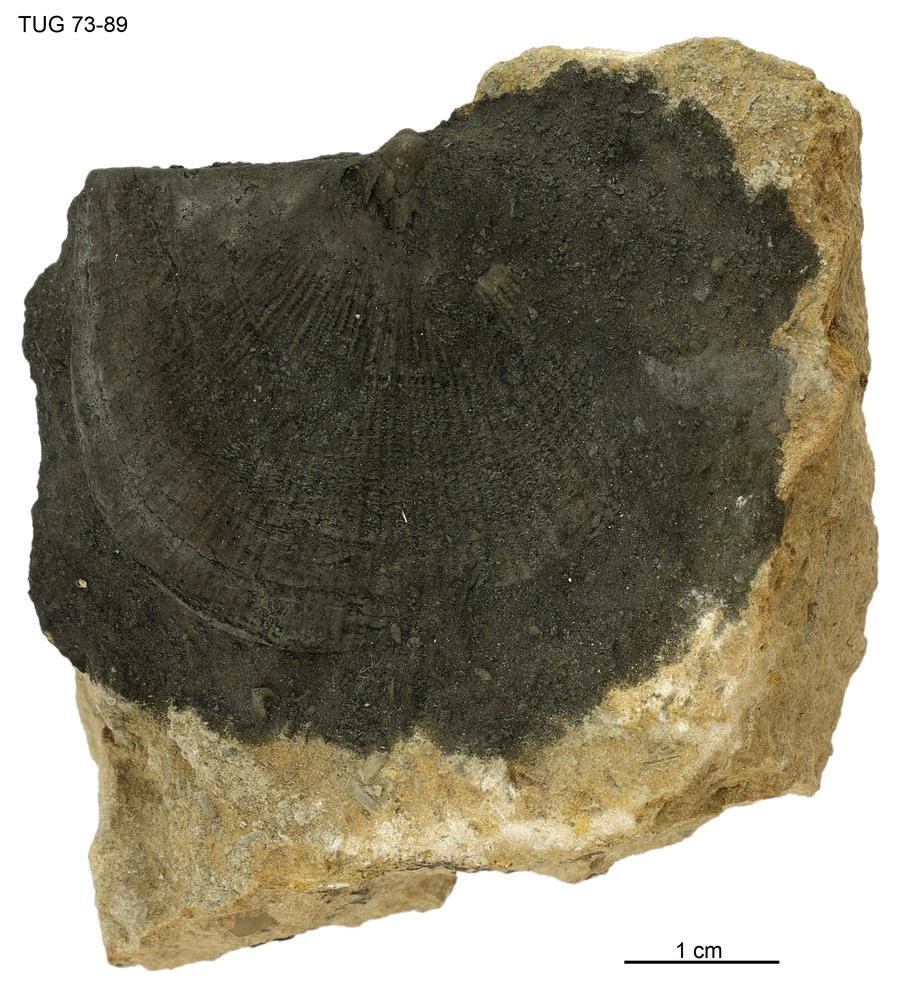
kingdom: Animalia
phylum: Brachiopoda
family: Gonambonitidae
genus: Estlandia
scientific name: Estlandia pyron
